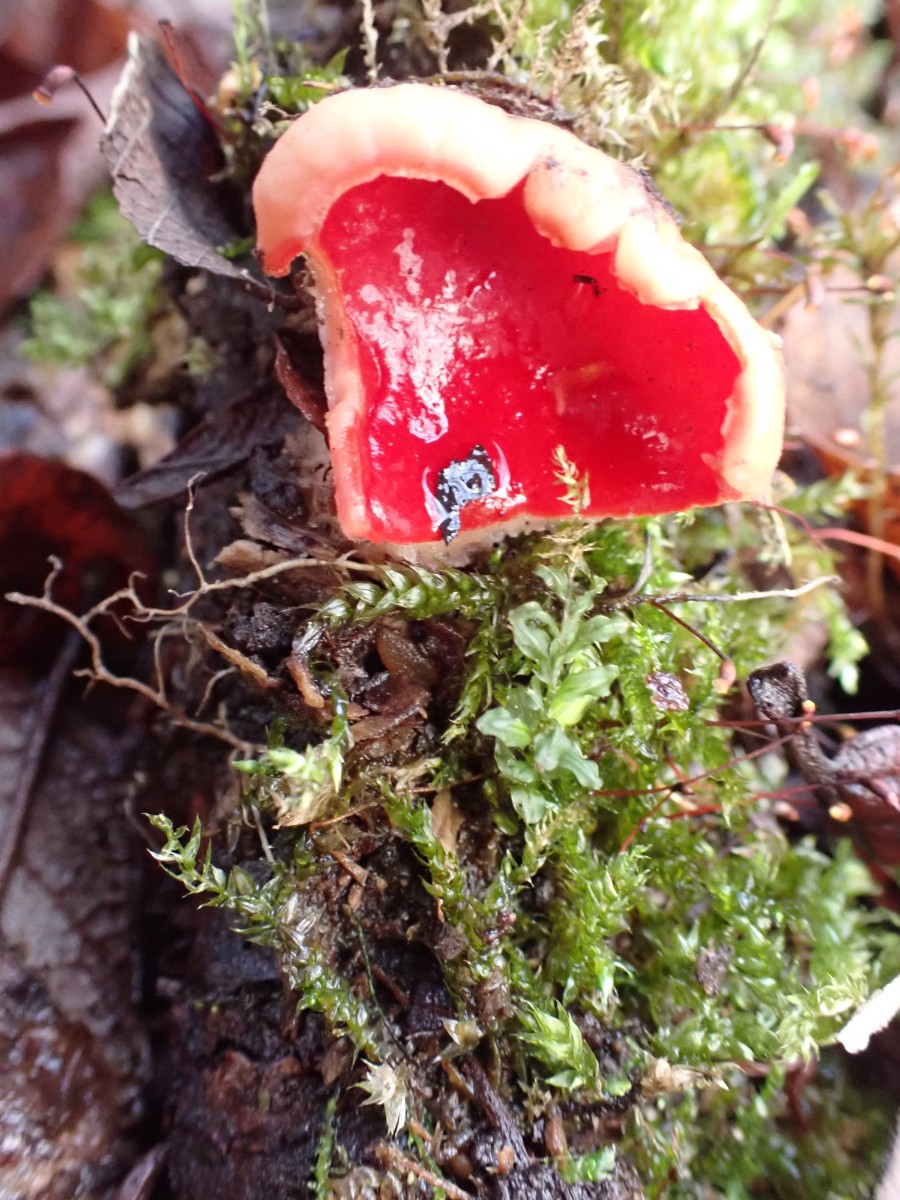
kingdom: Fungi
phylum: Ascomycota
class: Pezizomycetes
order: Pezizales
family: Sarcoscyphaceae
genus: Sarcoscypha
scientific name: Sarcoscypha austriaca
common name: krølhåret pragtbæger
